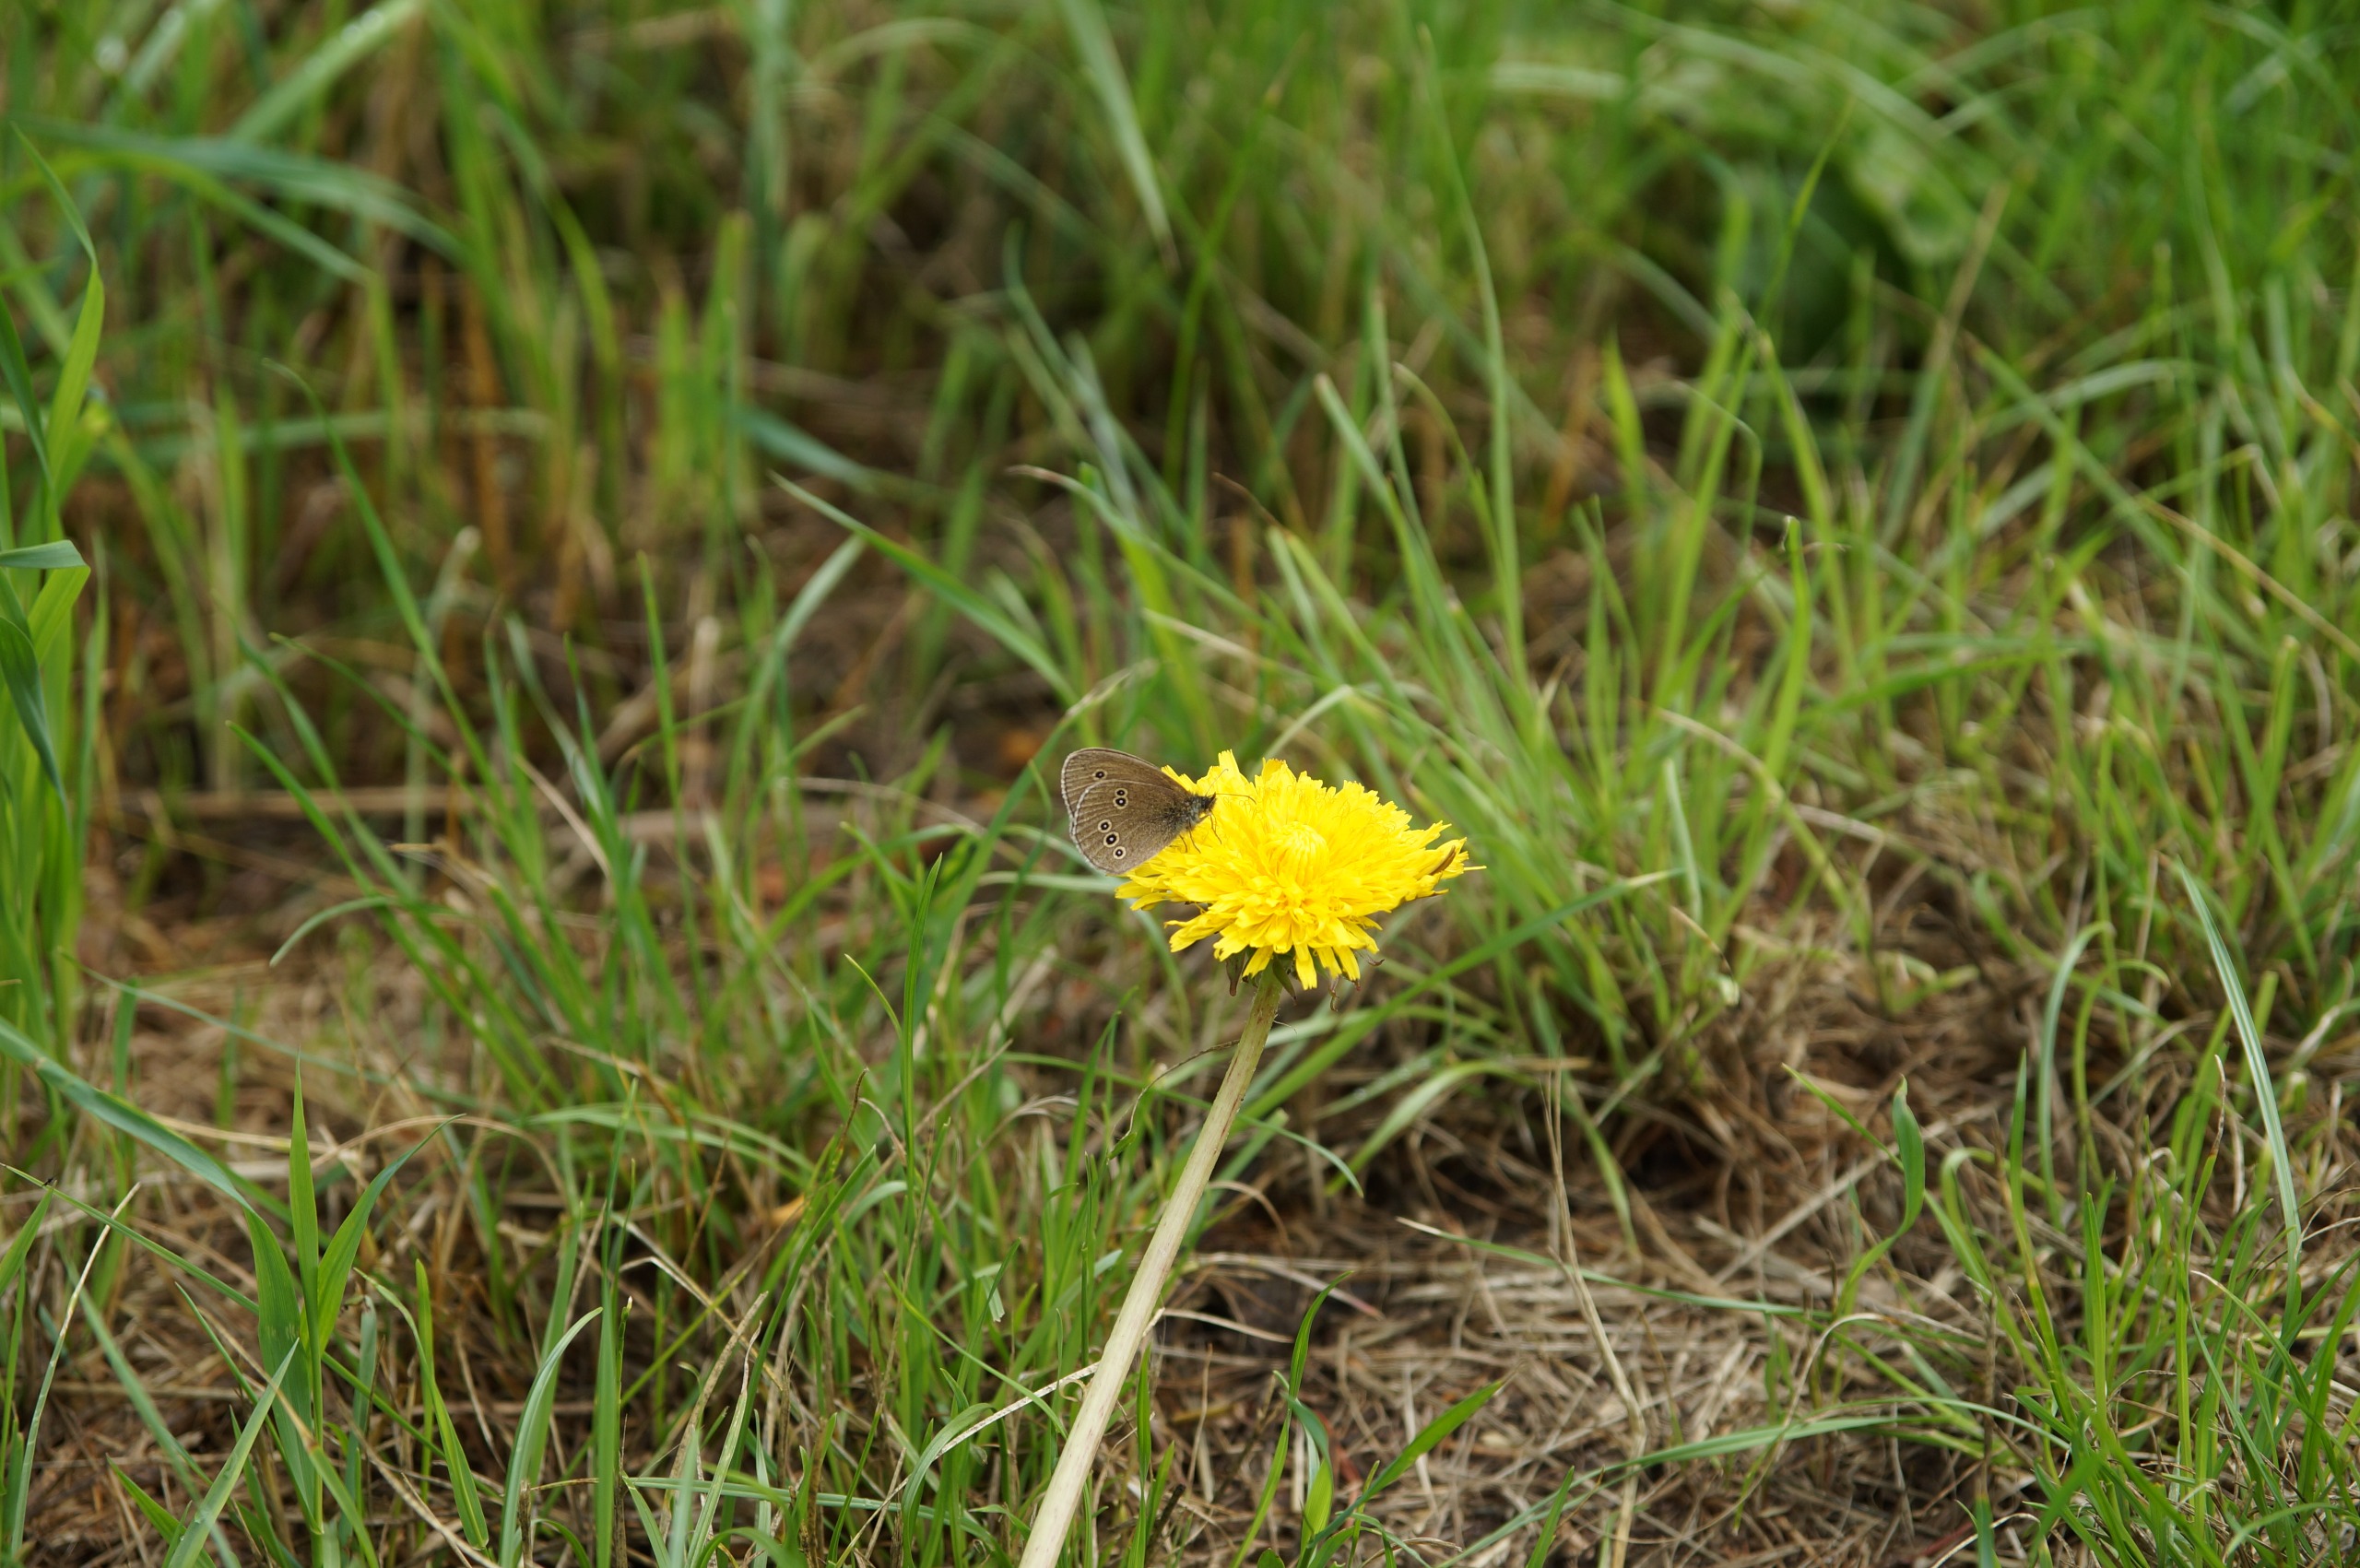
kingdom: Animalia
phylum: Arthropoda
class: Insecta
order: Lepidoptera
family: Nymphalidae
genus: Aphantopus
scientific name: Aphantopus hyperantus
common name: Engrandøje
